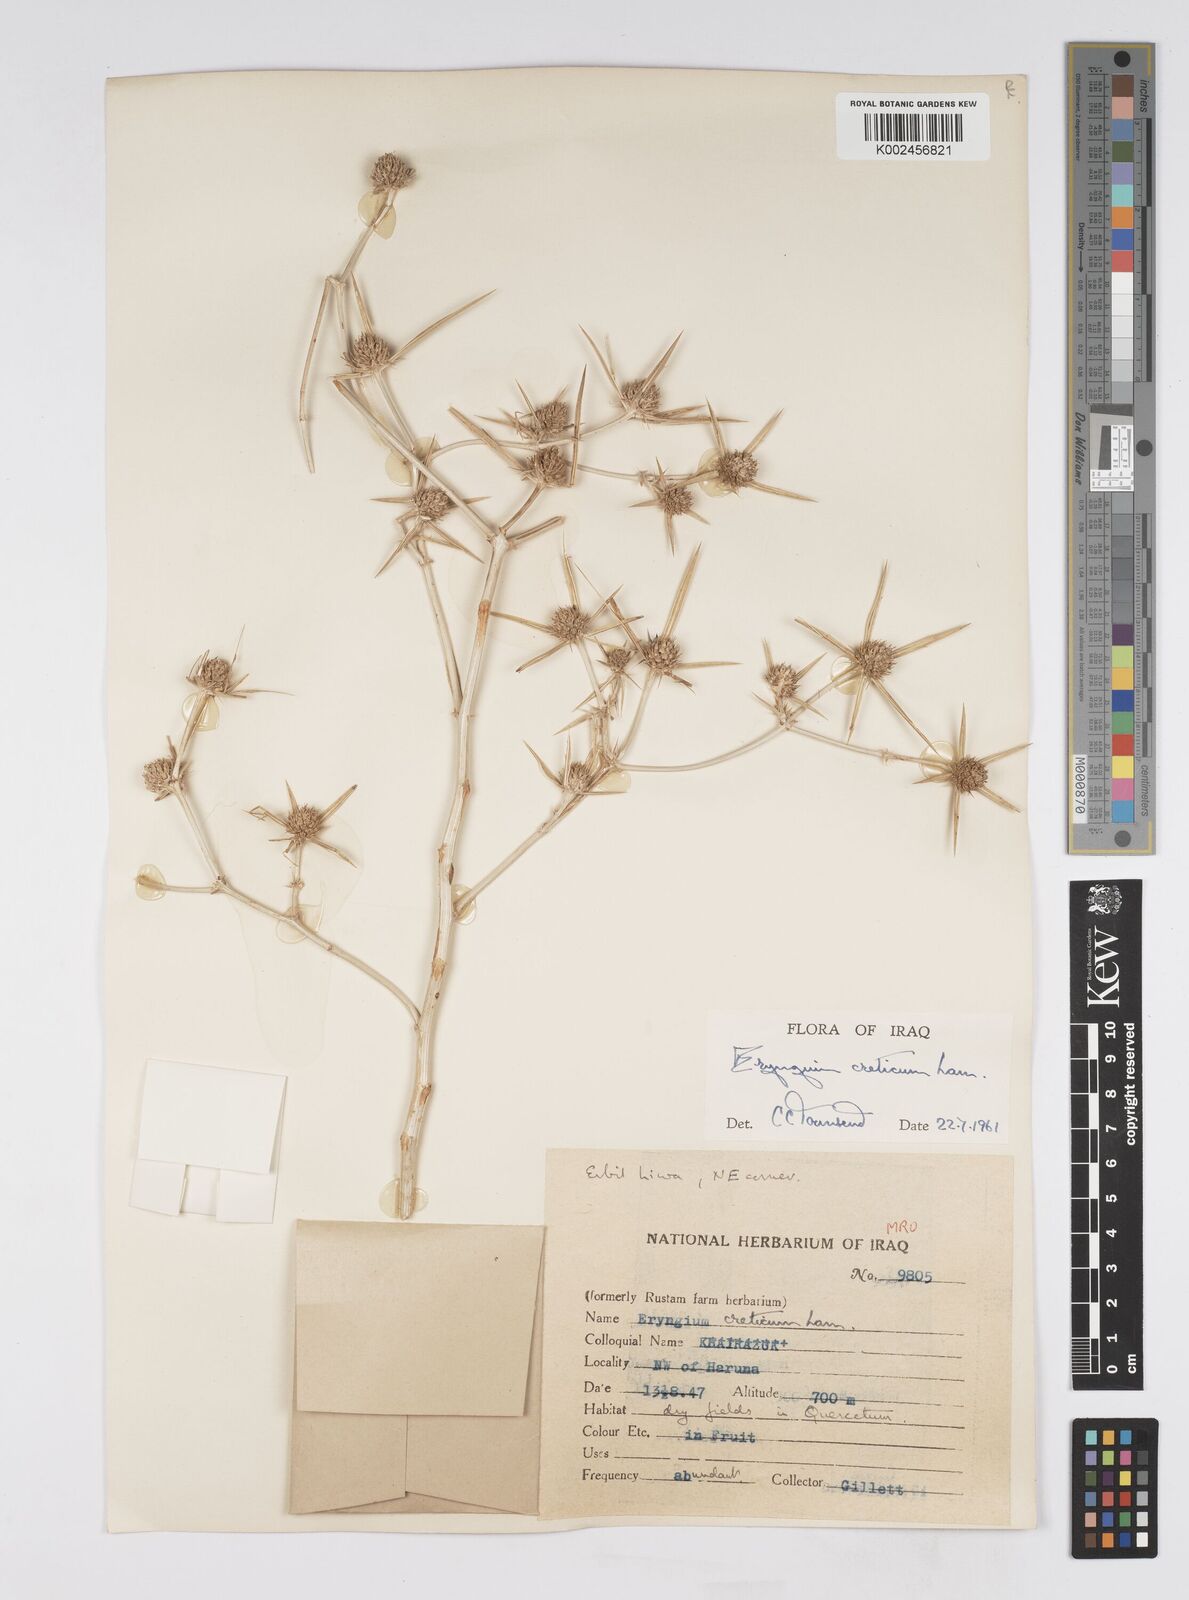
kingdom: Plantae
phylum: Tracheophyta
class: Magnoliopsida
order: Apiales
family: Apiaceae
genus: Eryngium
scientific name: Eryngium creticum
